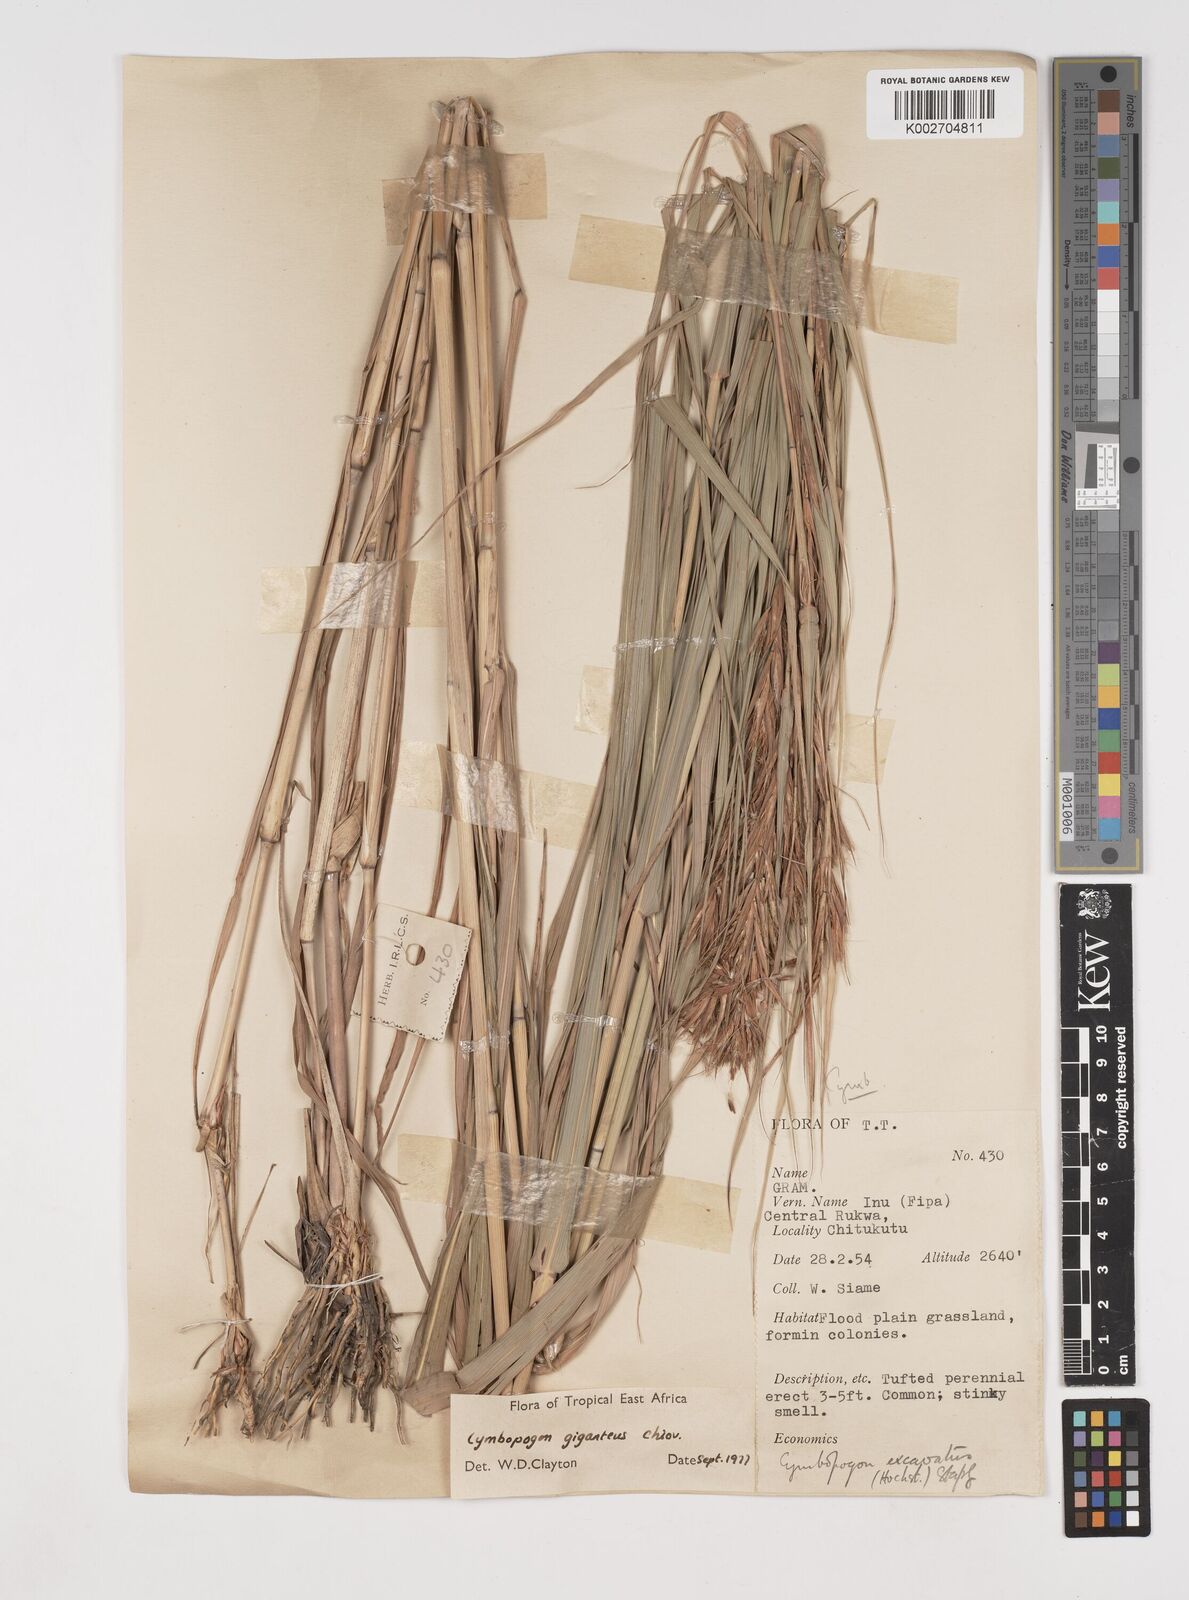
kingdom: Plantae
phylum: Tracheophyta
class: Liliopsida
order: Poales
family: Poaceae
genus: Cymbopogon
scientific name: Cymbopogon giganteus
